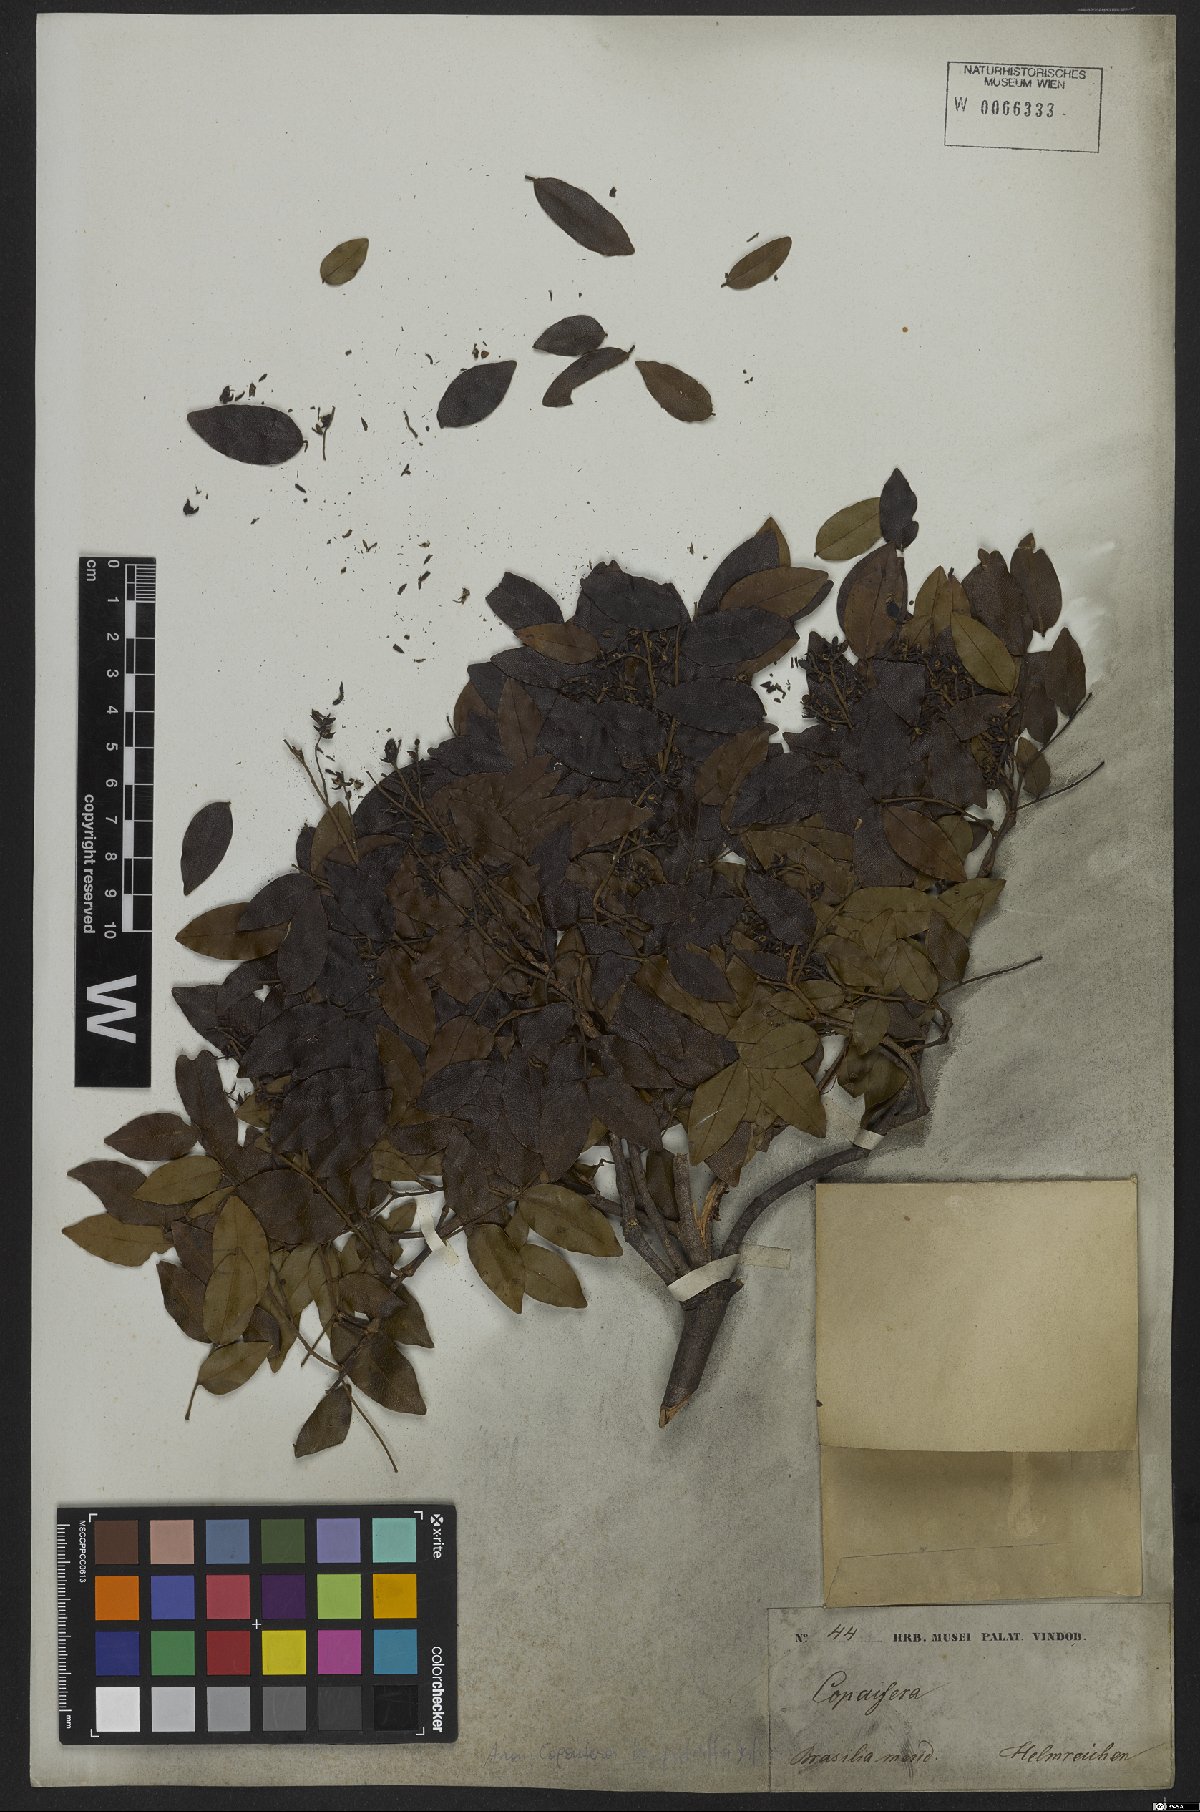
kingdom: Plantae
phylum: Tracheophyta
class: Magnoliopsida
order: Fabales
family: Fabaceae
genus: Copaifera
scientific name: Copaifera langsdorffii
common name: Brazilian diesel tree
